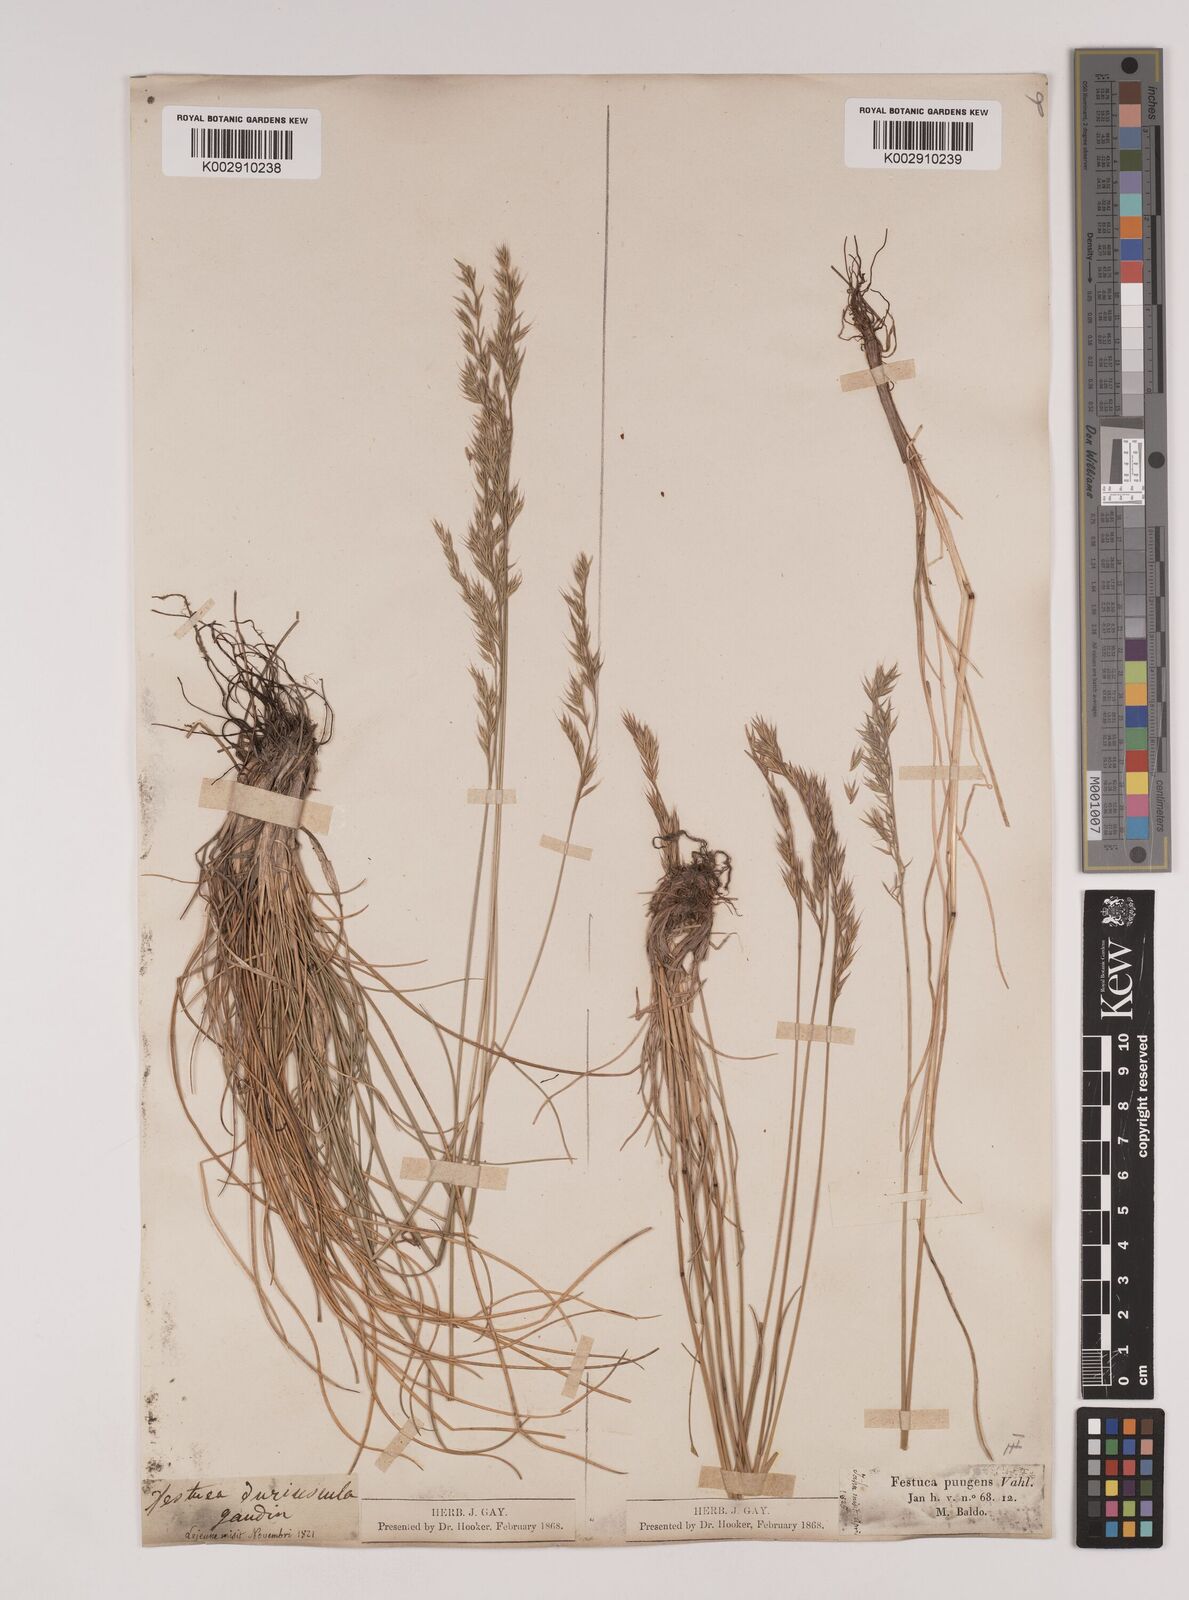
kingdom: Plantae
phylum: Tracheophyta
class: Liliopsida
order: Poales
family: Poaceae
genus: Festuca
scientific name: Festuca bosniaca
